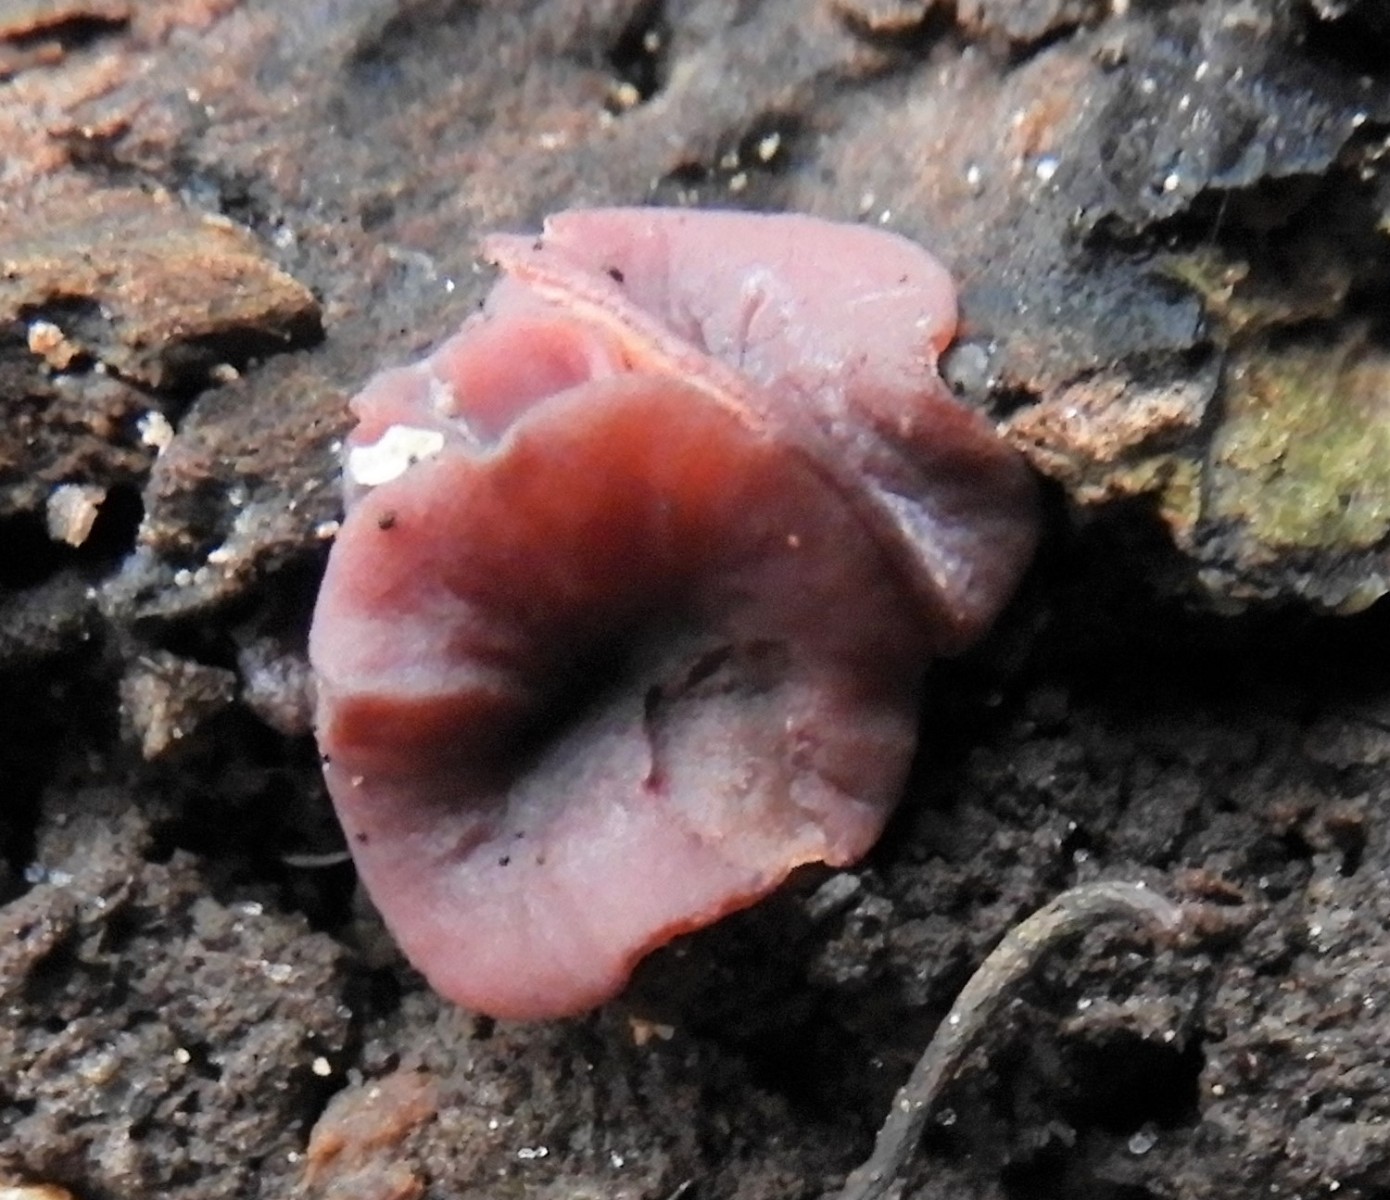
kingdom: Fungi
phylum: Ascomycota
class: Leotiomycetes
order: Helotiales
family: Gelatinodiscaceae
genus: Ascocoryne
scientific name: Ascocoryne cylichnium
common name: stor sejskive
